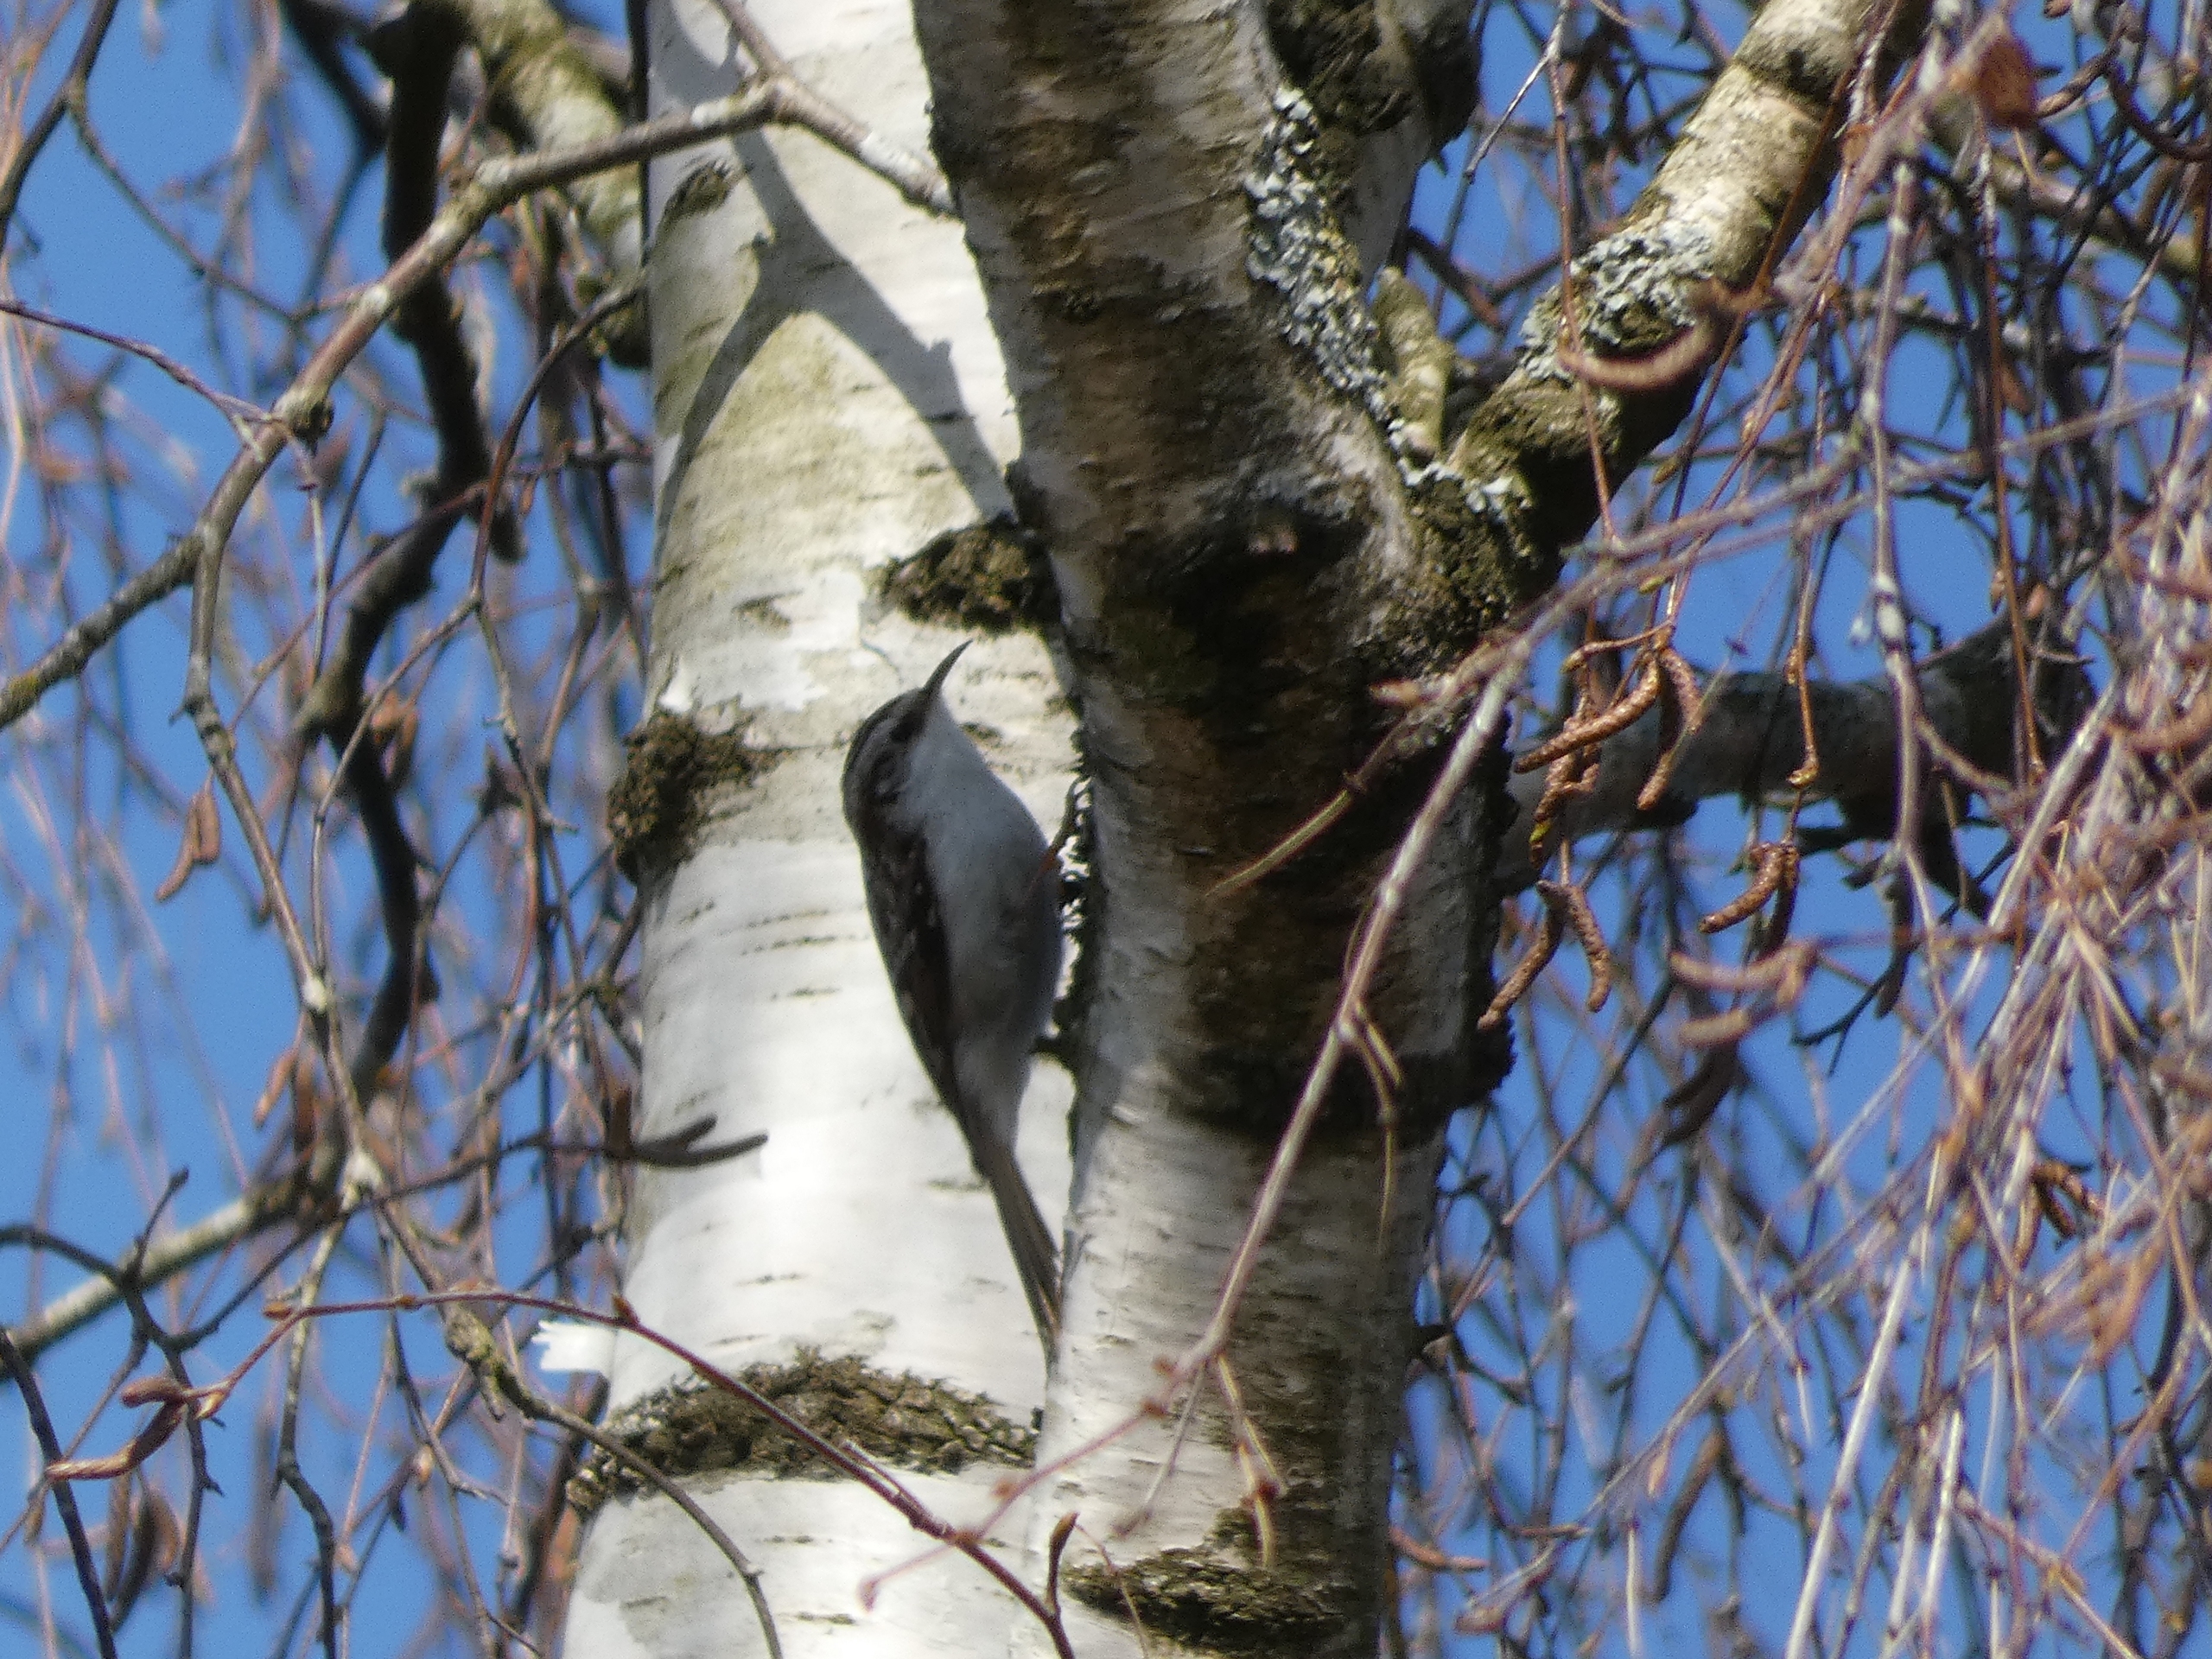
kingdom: Animalia
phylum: Chordata
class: Aves
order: Passeriformes
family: Certhiidae
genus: Certhia
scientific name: Certhia familiaris
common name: Træløber
